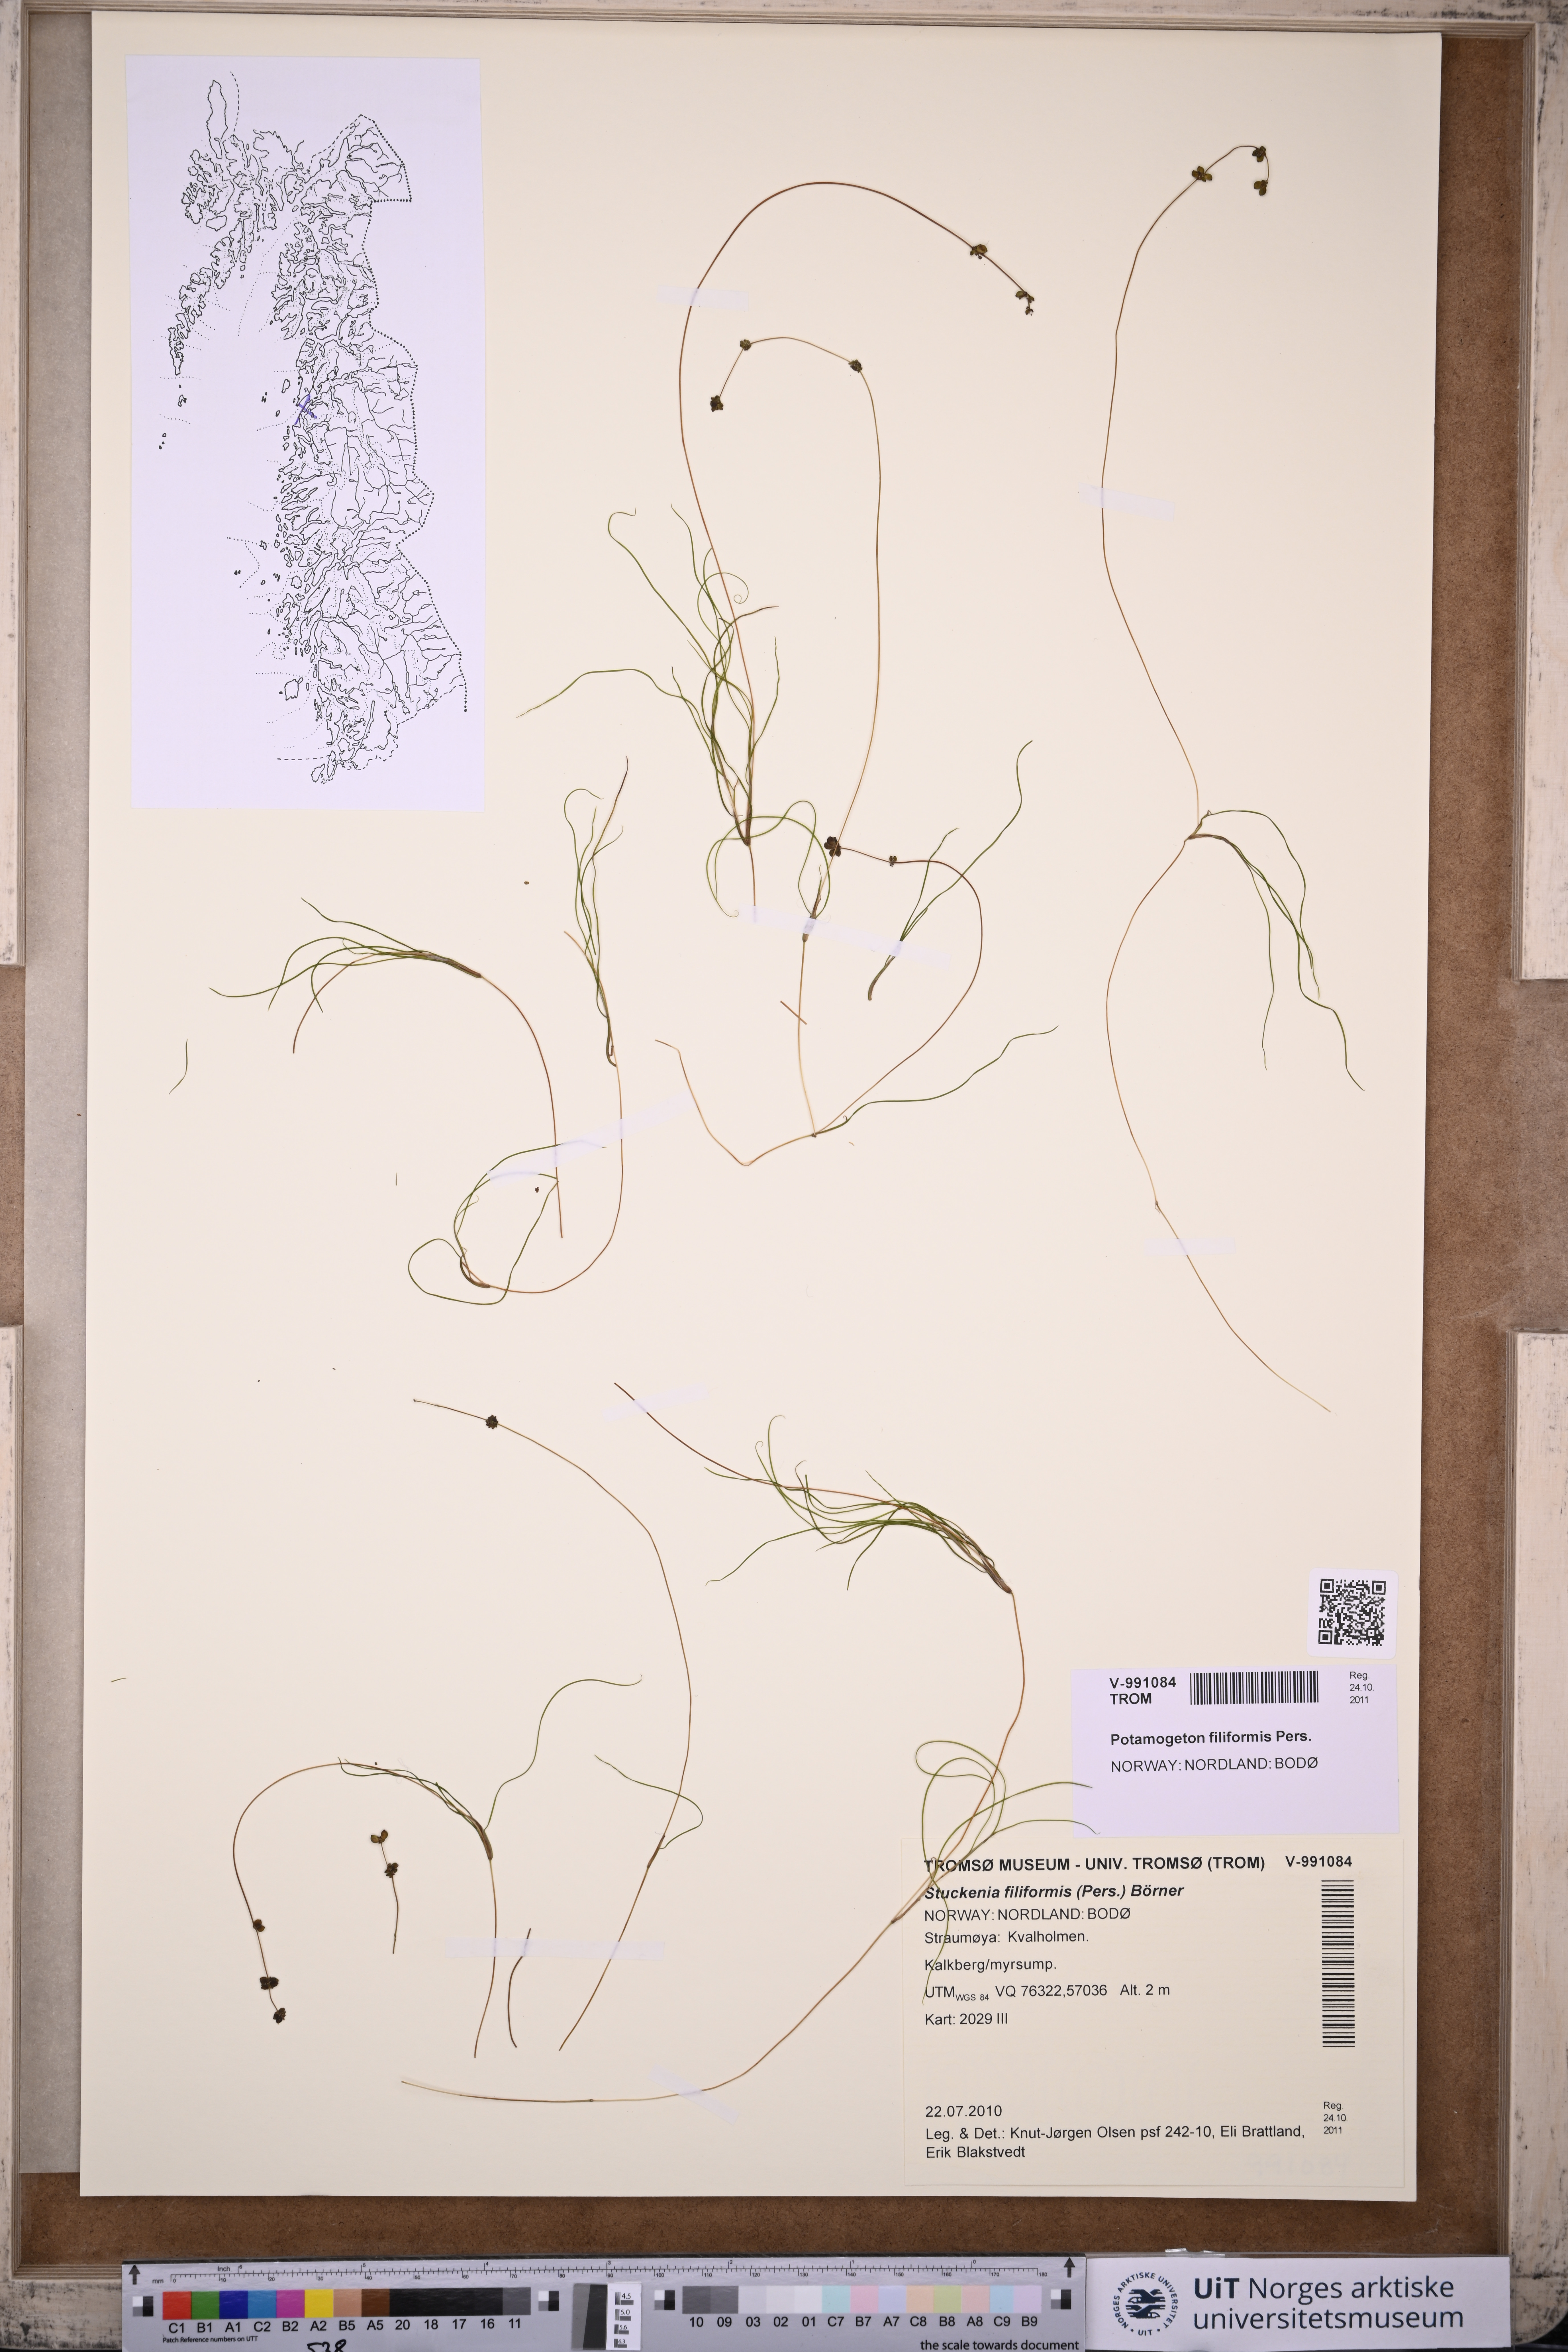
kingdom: Plantae
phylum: Tracheophyta
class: Liliopsida
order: Alismatales
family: Potamogetonaceae
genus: Stuckenia
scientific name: Stuckenia filiformis
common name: Alpine thread-leaved pondweed
